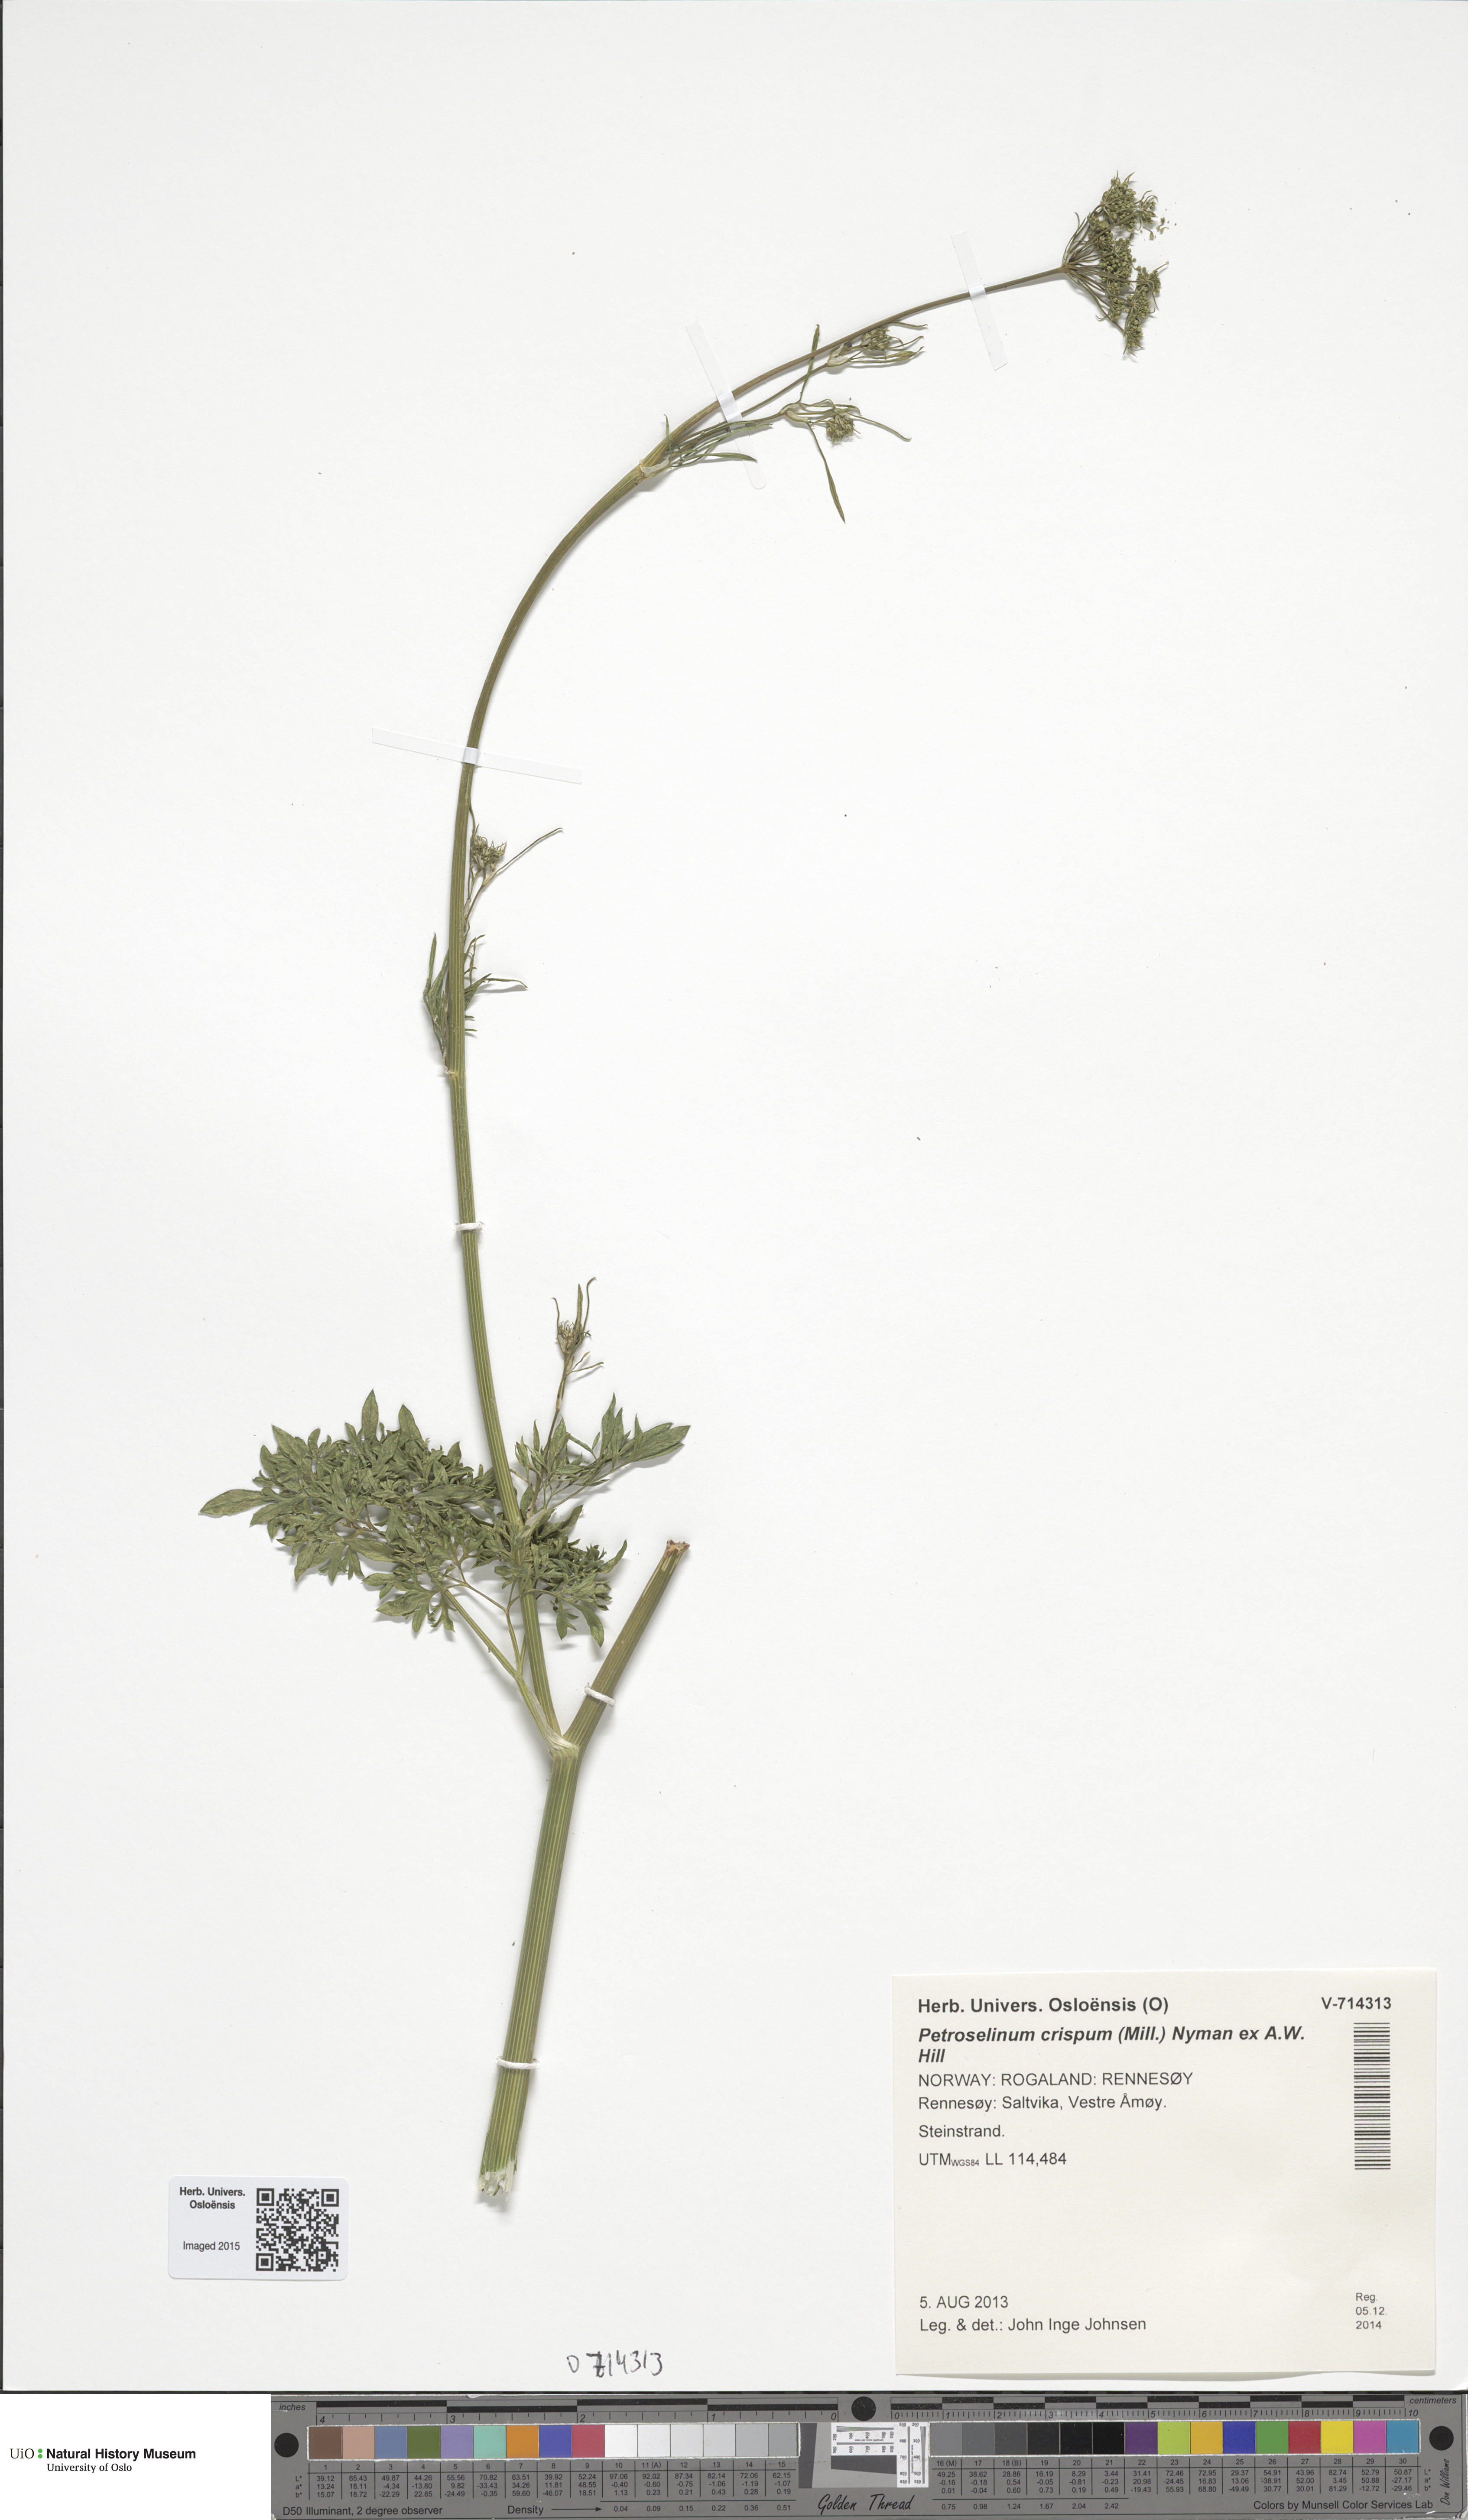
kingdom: Plantae
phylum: Tracheophyta
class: Magnoliopsida
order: Apiales
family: Apiaceae
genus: Petroselinum
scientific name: Petroselinum crispum
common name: Parsley
